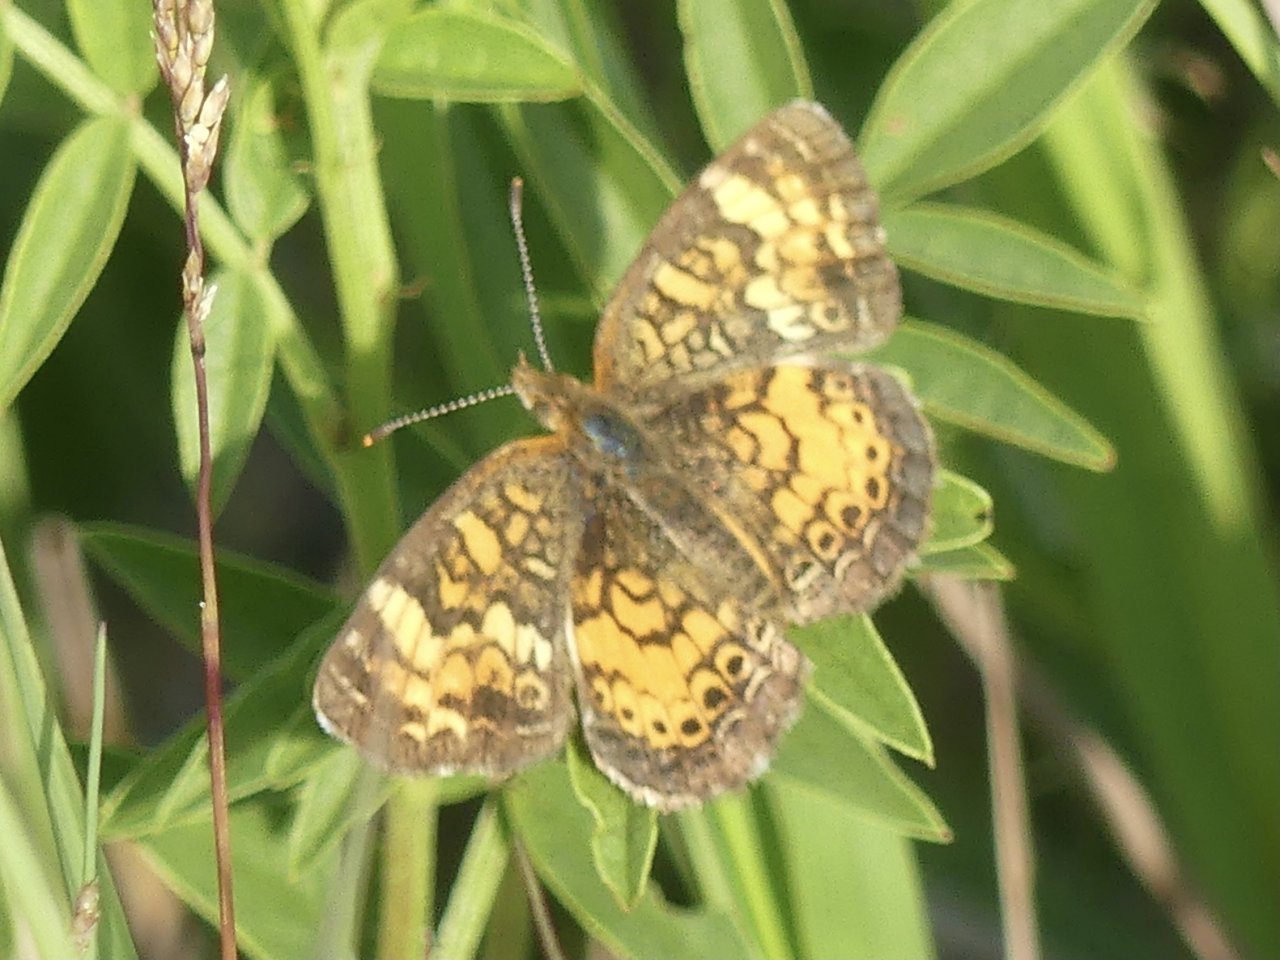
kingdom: Animalia
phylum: Arthropoda
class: Insecta
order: Lepidoptera
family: Nymphalidae
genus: Phyciodes
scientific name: Phyciodes
